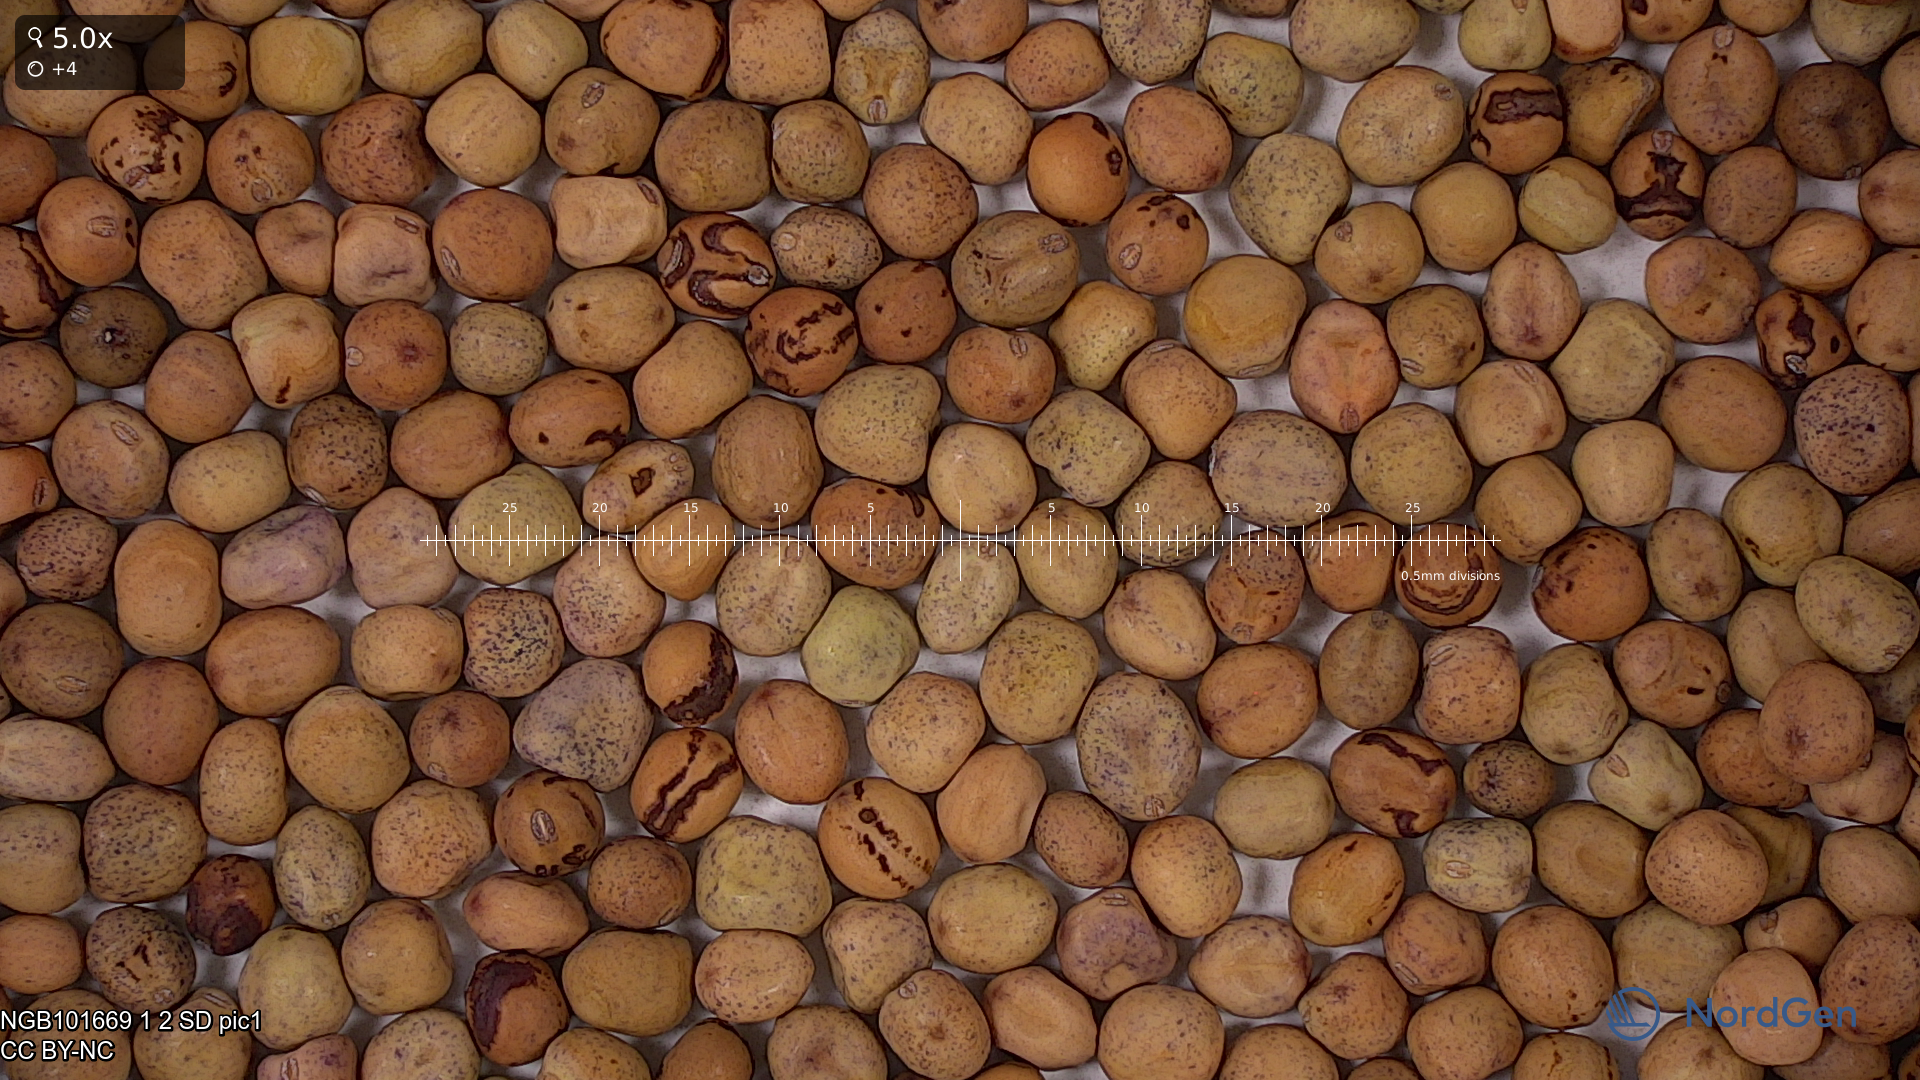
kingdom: Plantae
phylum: Tracheophyta
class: Magnoliopsida
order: Fabales
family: Fabaceae
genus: Lathyrus
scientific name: Lathyrus oleraceus
